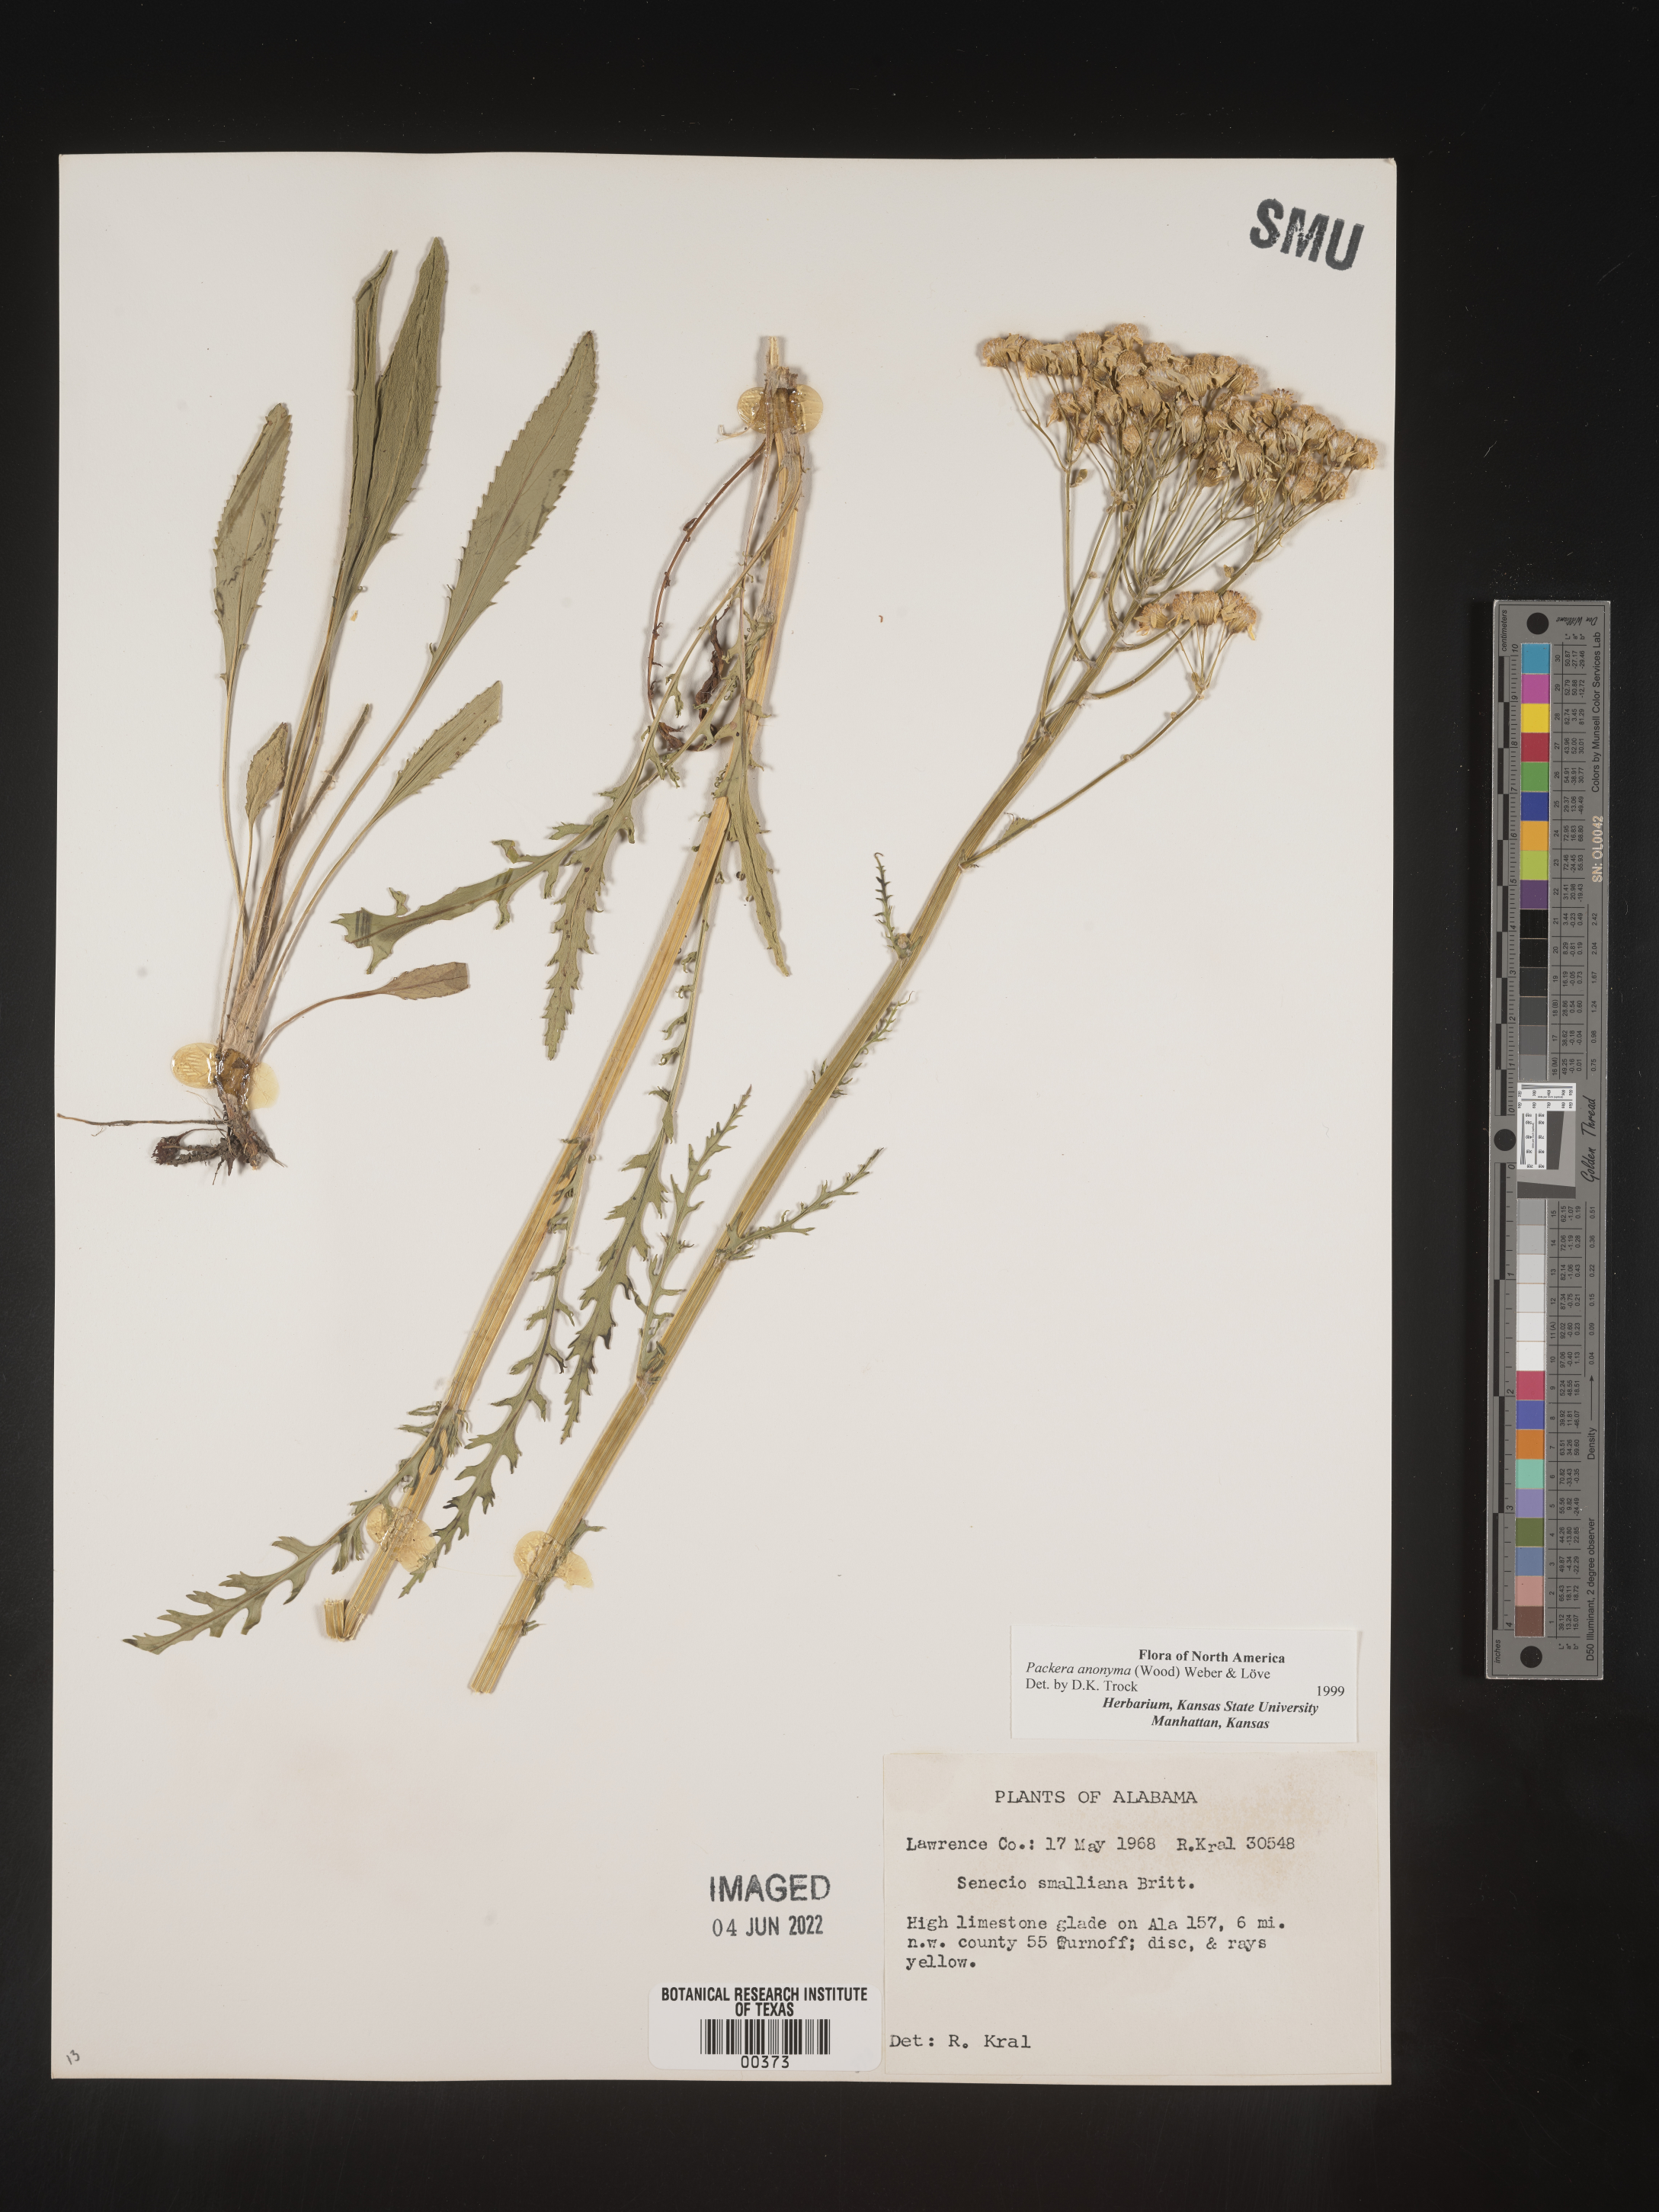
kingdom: Plantae
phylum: Tracheophyta
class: Magnoliopsida
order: Asterales
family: Asteraceae
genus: Packera
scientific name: Packera anonyma
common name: Small ragwort
